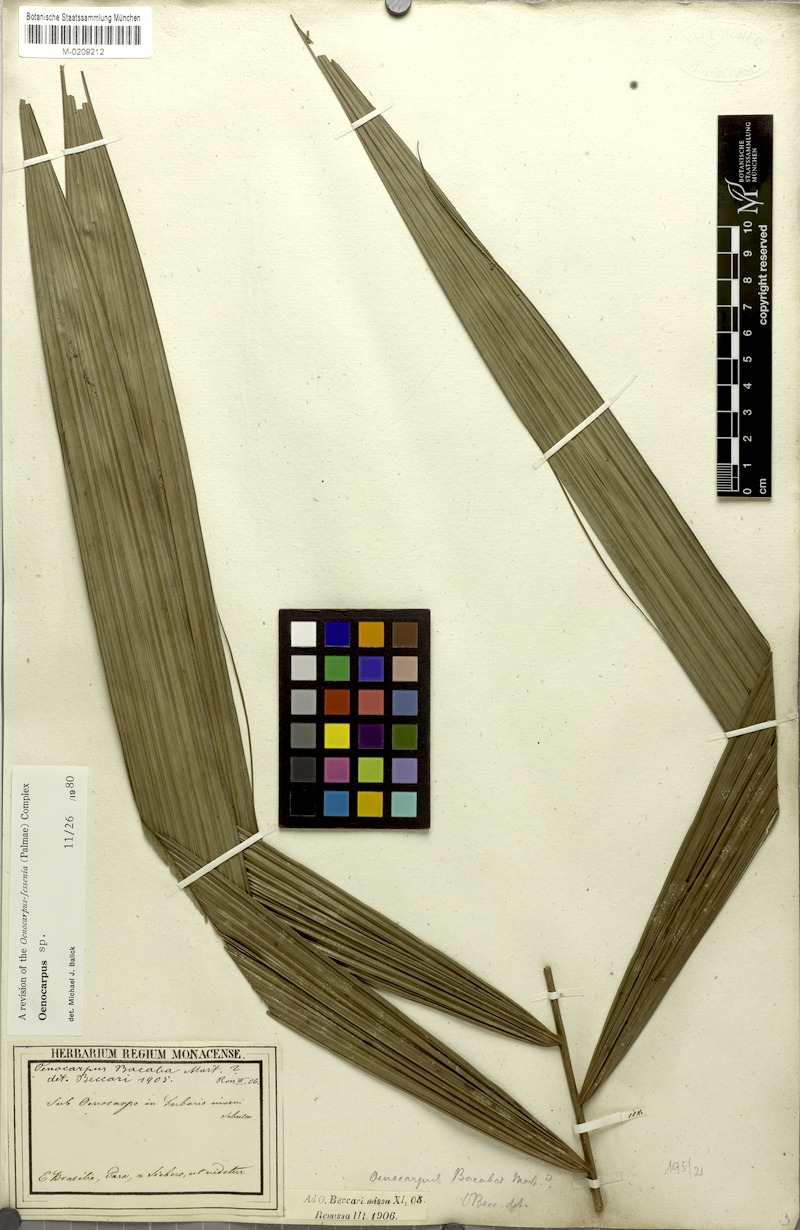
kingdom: Plantae
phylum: Tracheophyta
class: Liliopsida
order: Arecales
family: Arecaceae
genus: Oenocarpus
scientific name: Oenocarpus
